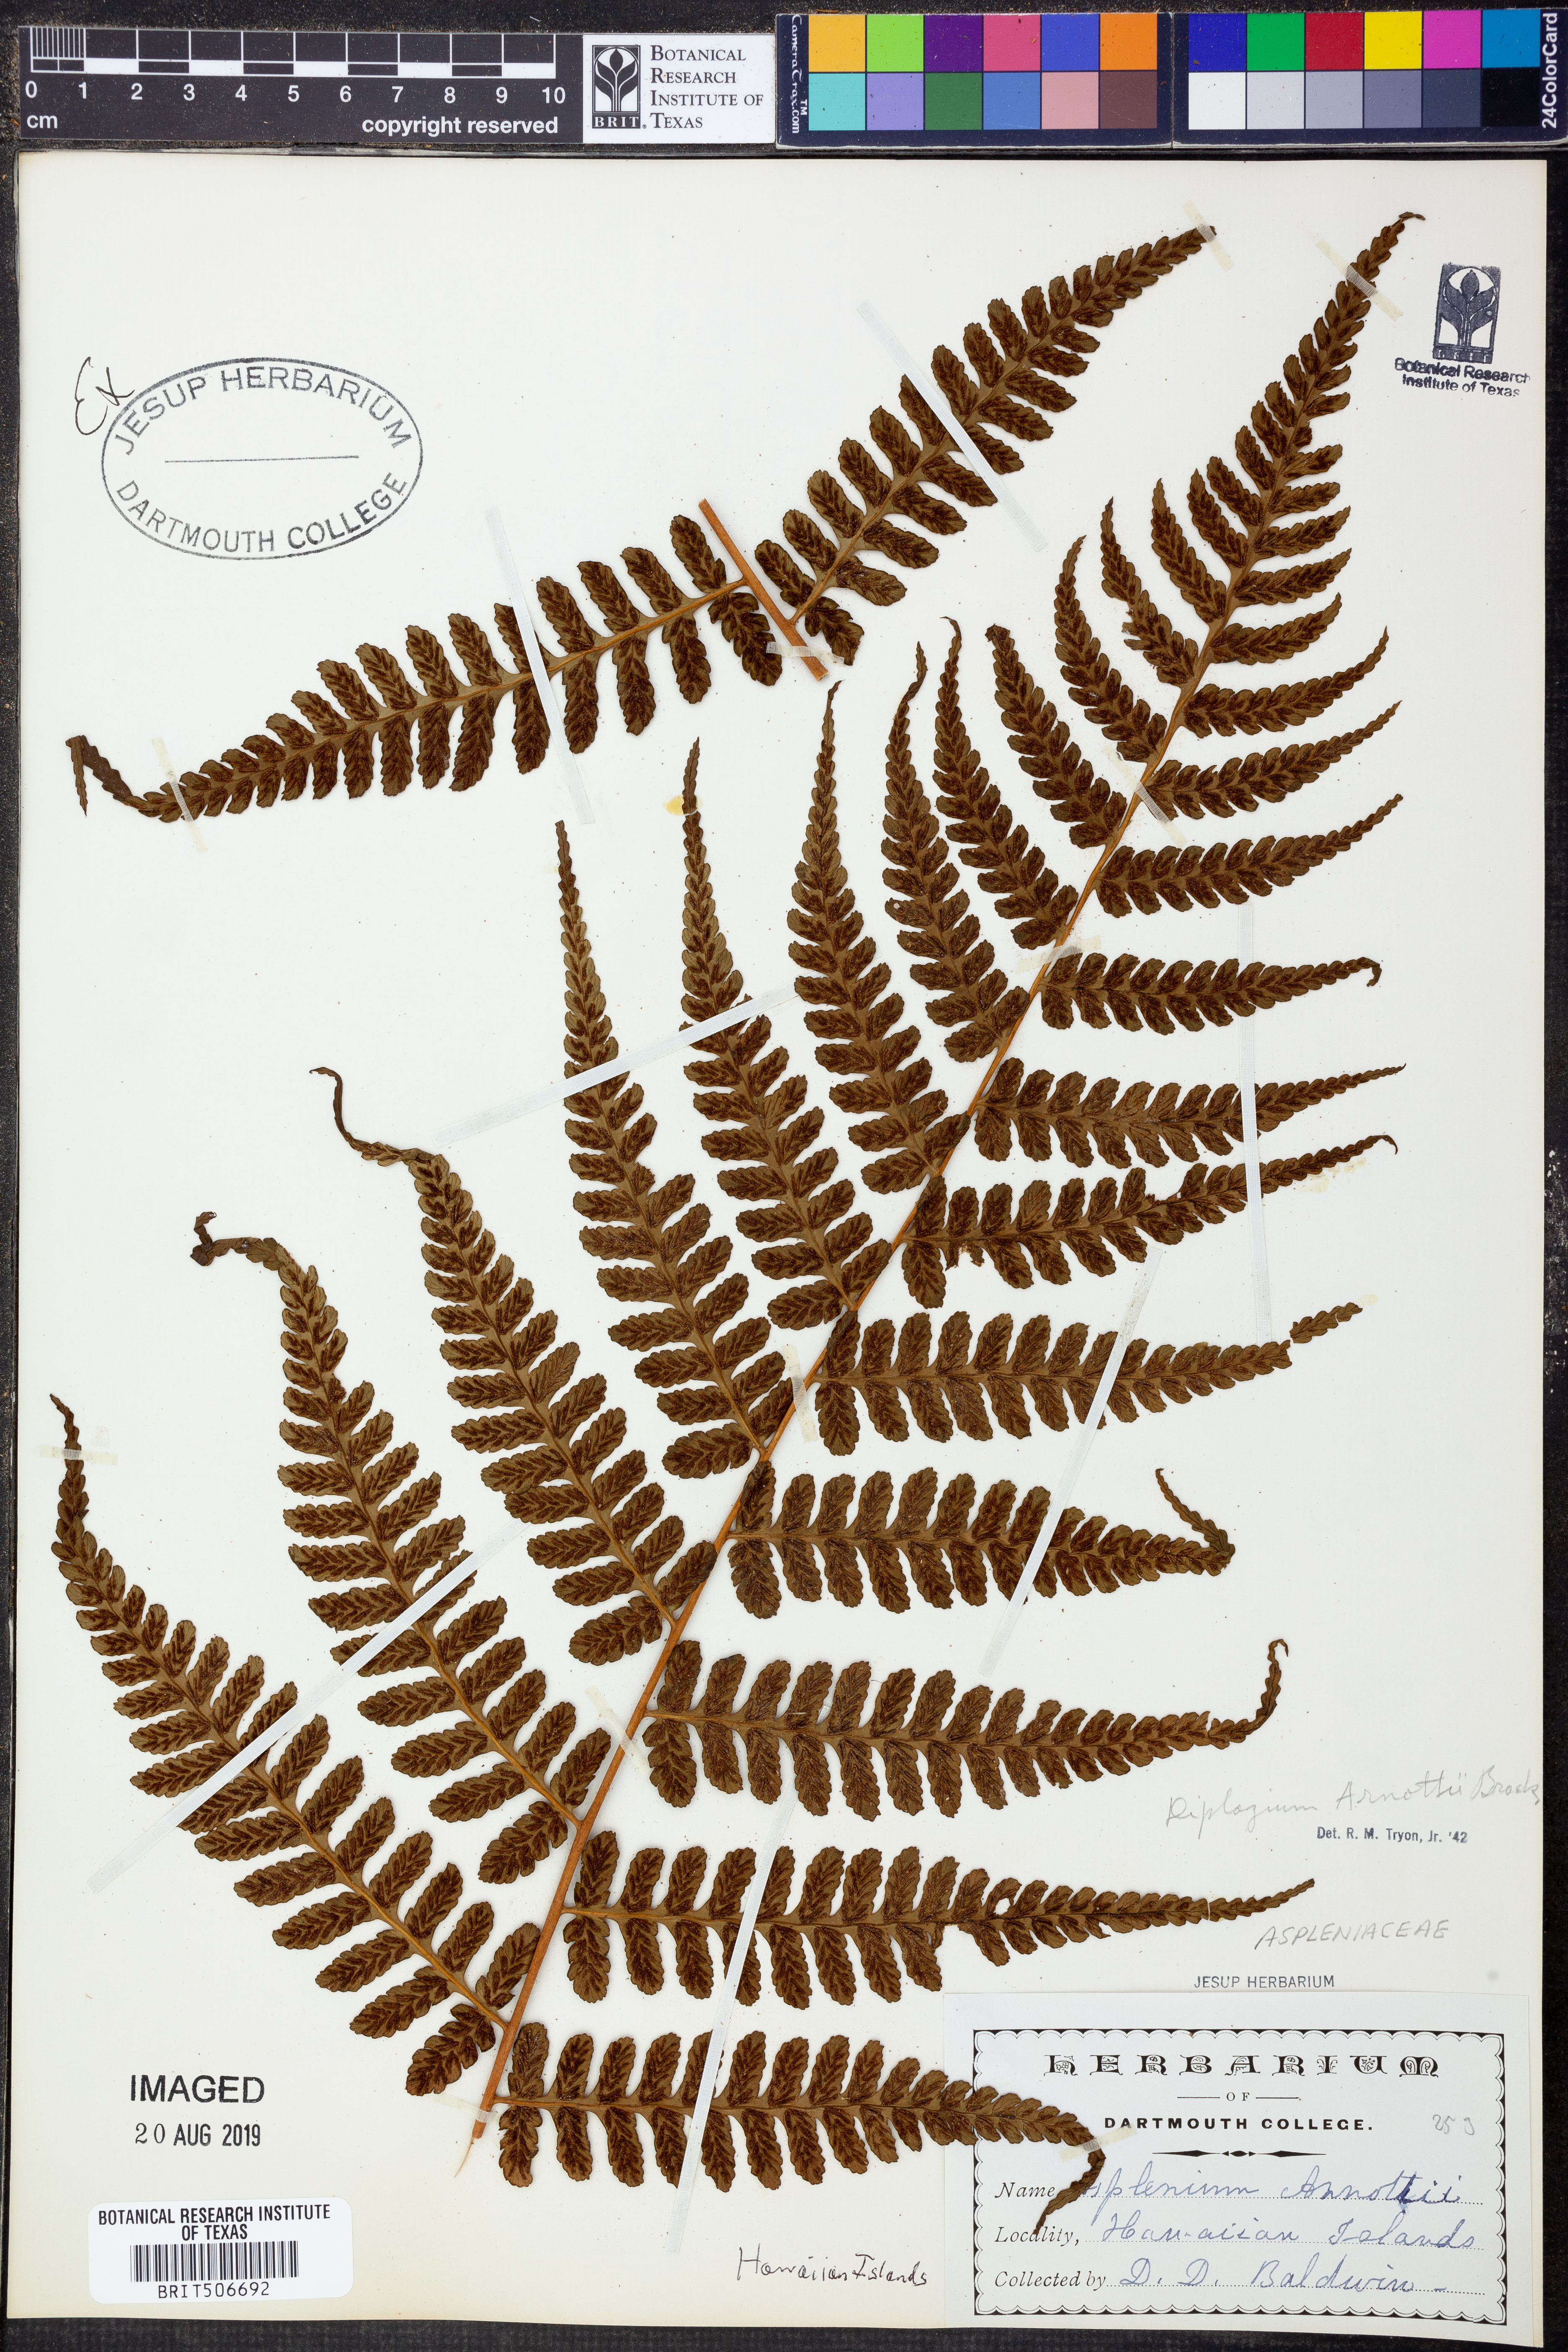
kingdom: Plantae
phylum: Tracheophyta
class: Polypodiopsida
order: Polypodiales
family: Athyriaceae
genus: Diplazium
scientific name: Diplazium arnottii
